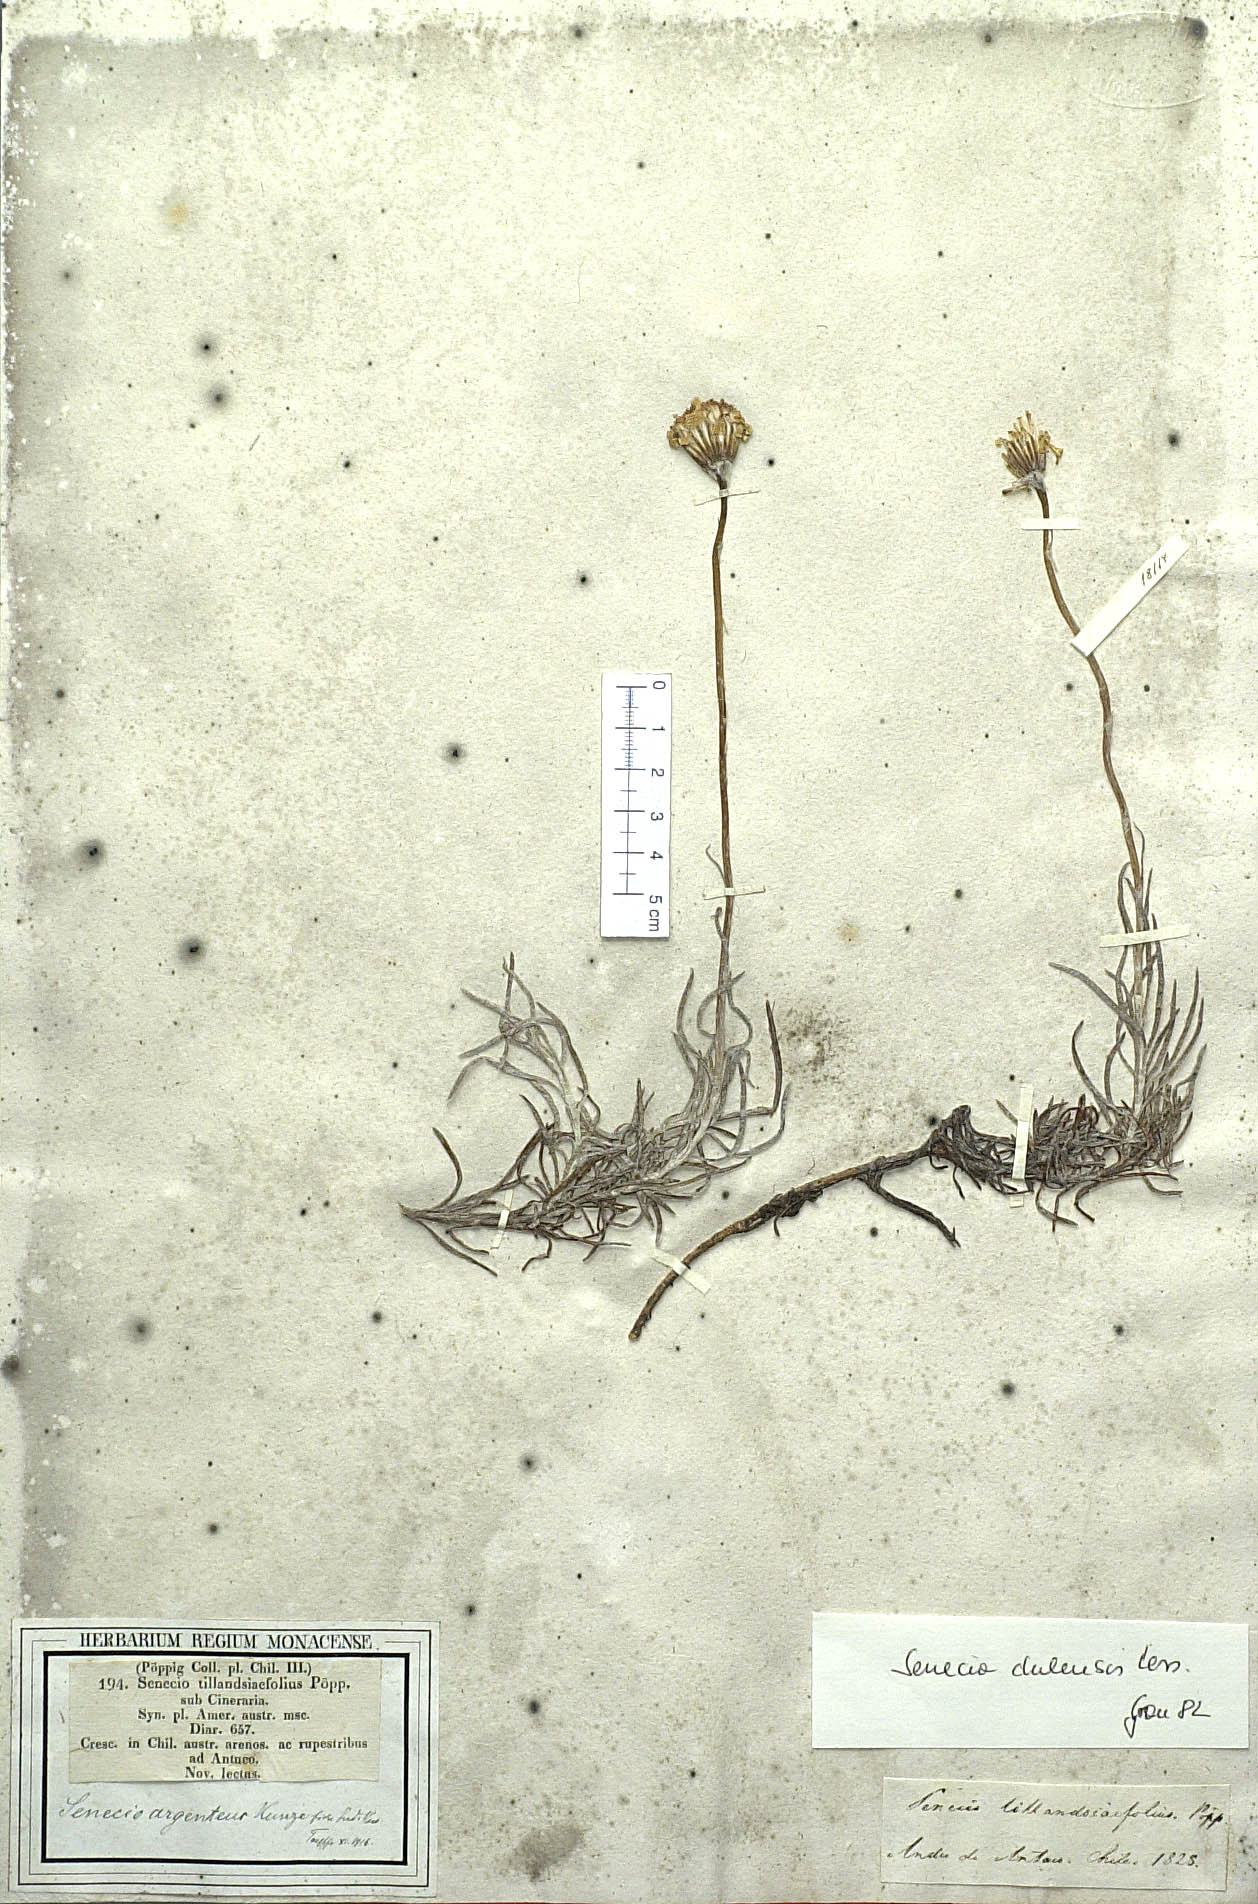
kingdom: Plantae
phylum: Tracheophyta
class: Magnoliopsida
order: Asterales
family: Asteraceae
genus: Senecio
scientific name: Senecio chilensis
